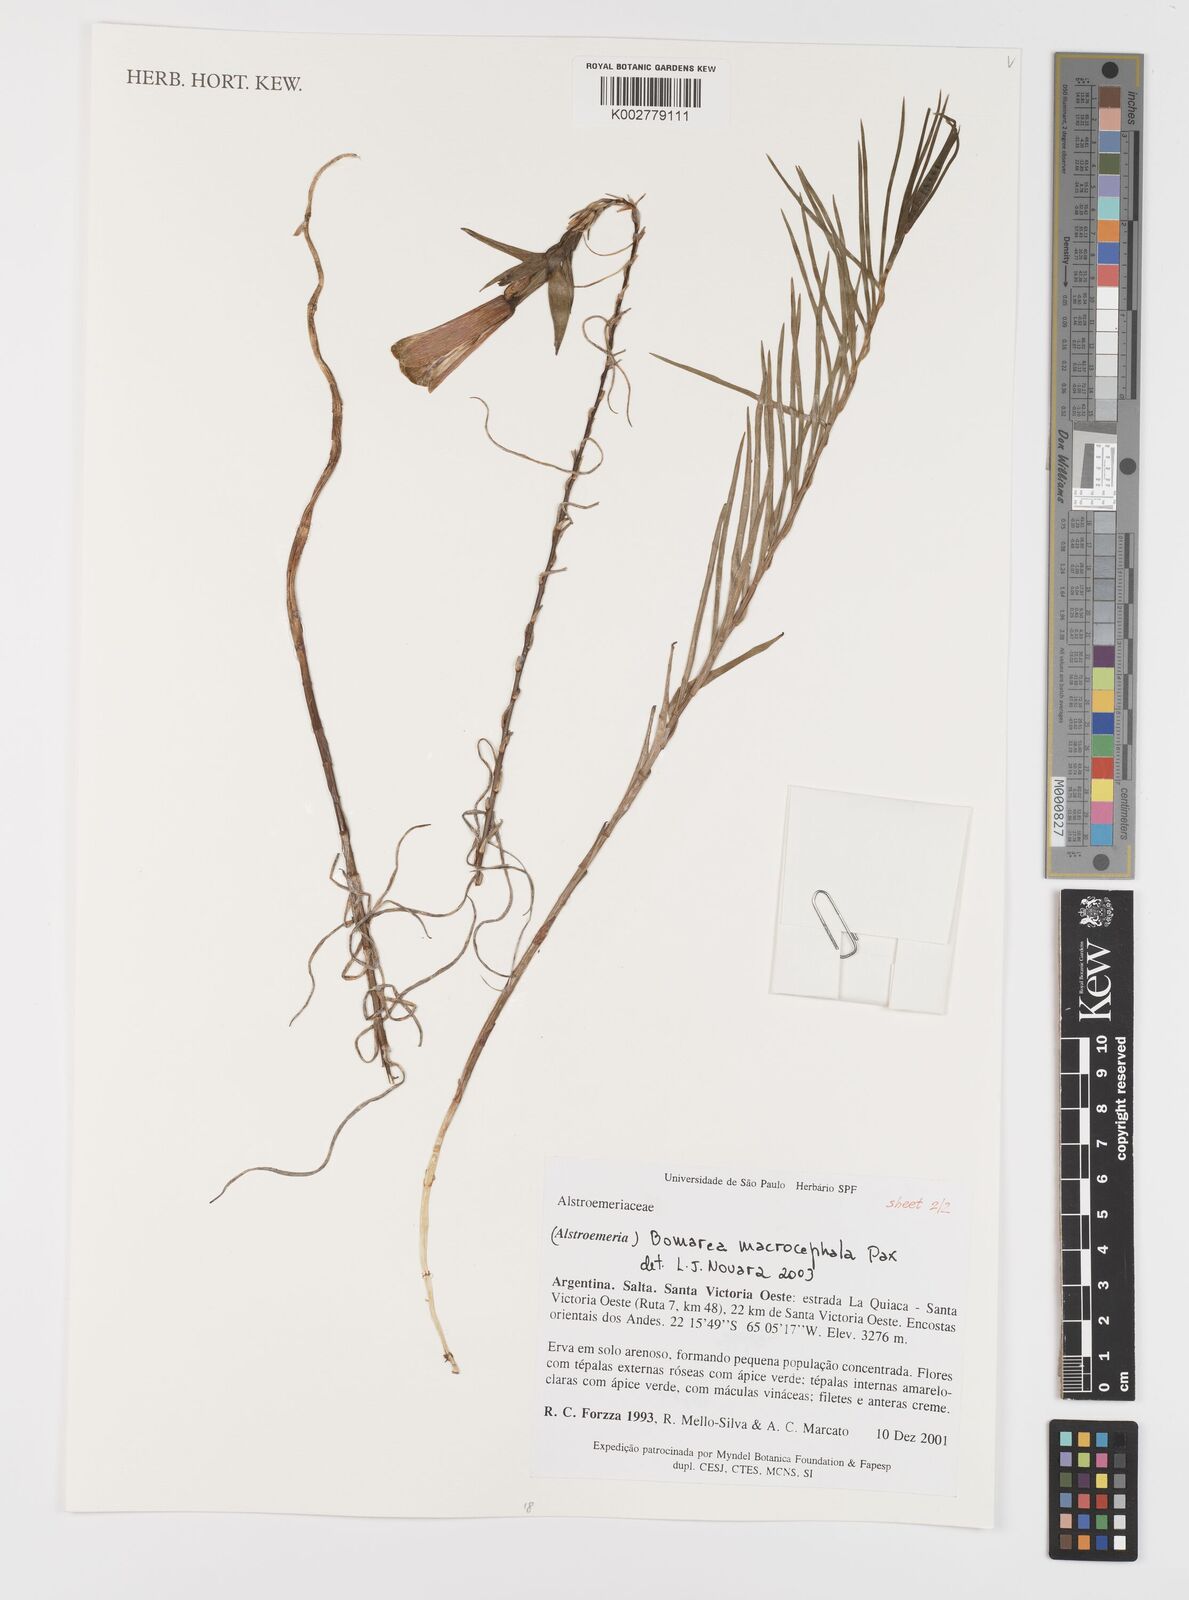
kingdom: Plantae
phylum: Tracheophyta
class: Liliopsida
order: Liliales
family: Alstroemeriaceae
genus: Bomarea
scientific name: Bomarea macrocephala
